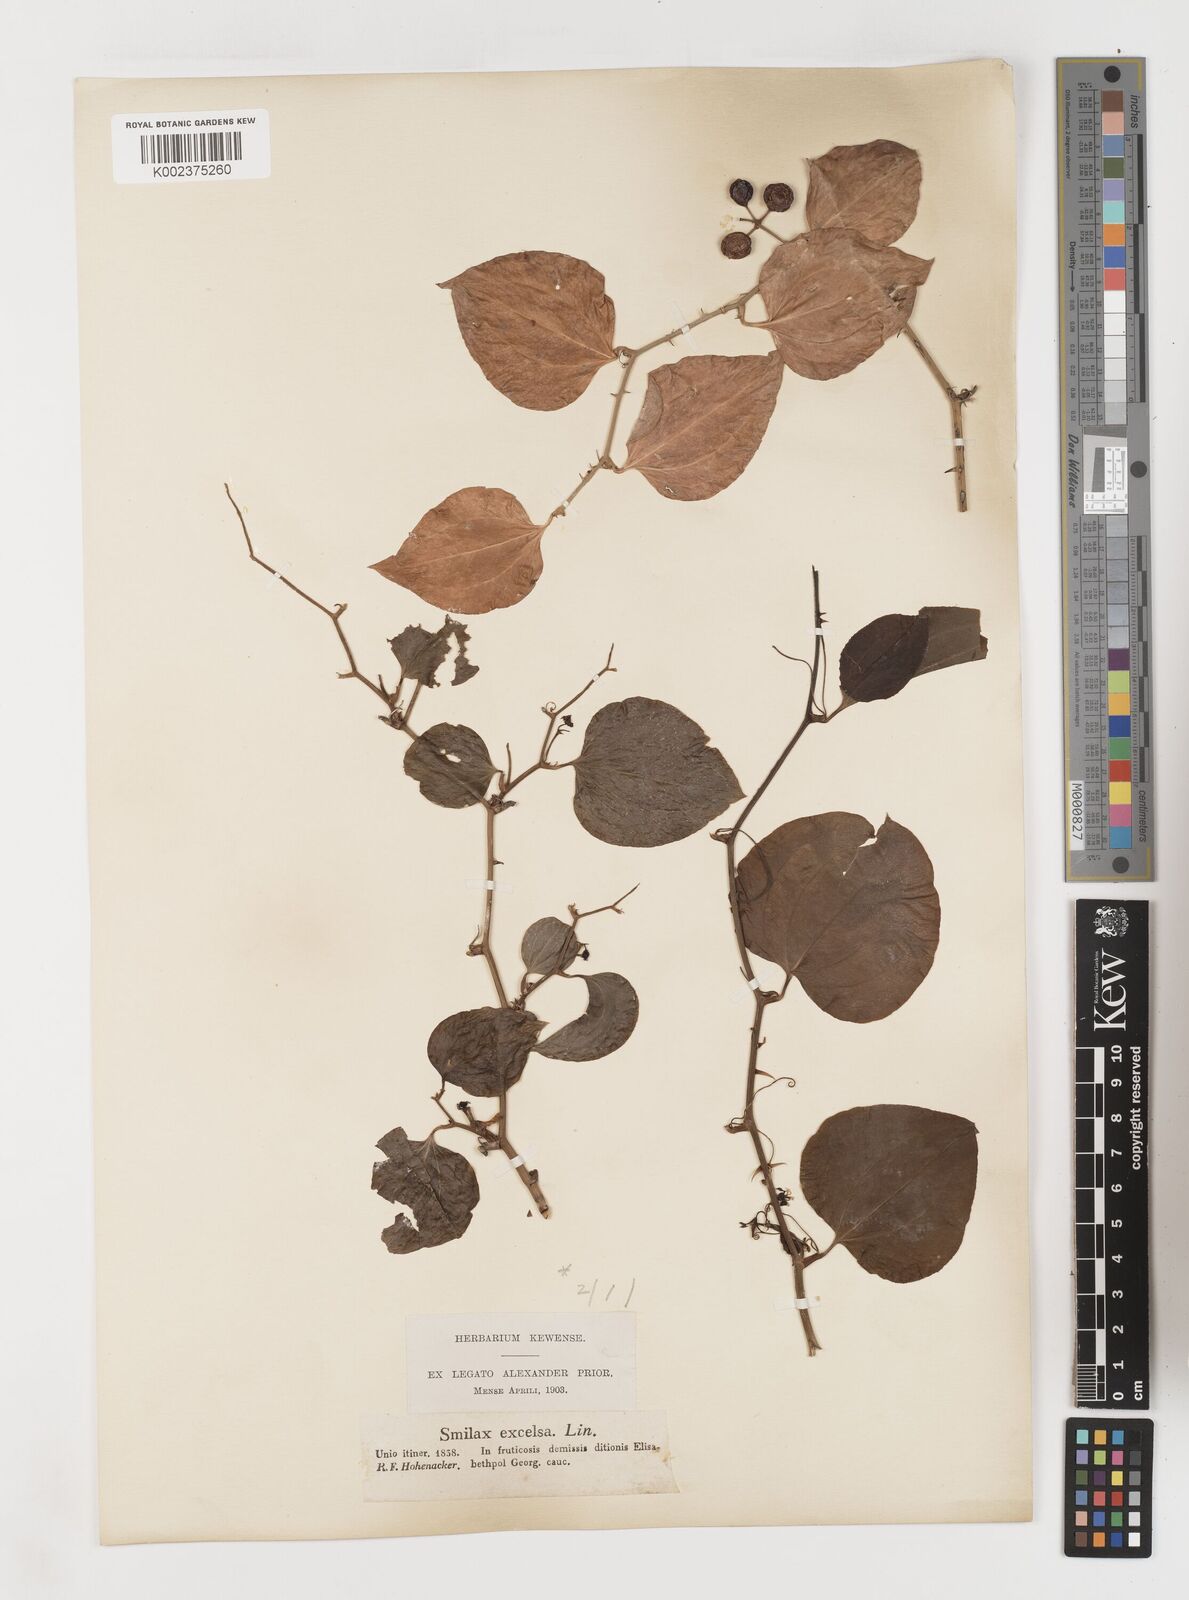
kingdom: Plantae
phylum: Tracheophyta
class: Liliopsida
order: Liliales
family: Smilacaceae
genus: Smilax
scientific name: Smilax excelsa
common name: Larger smilax
